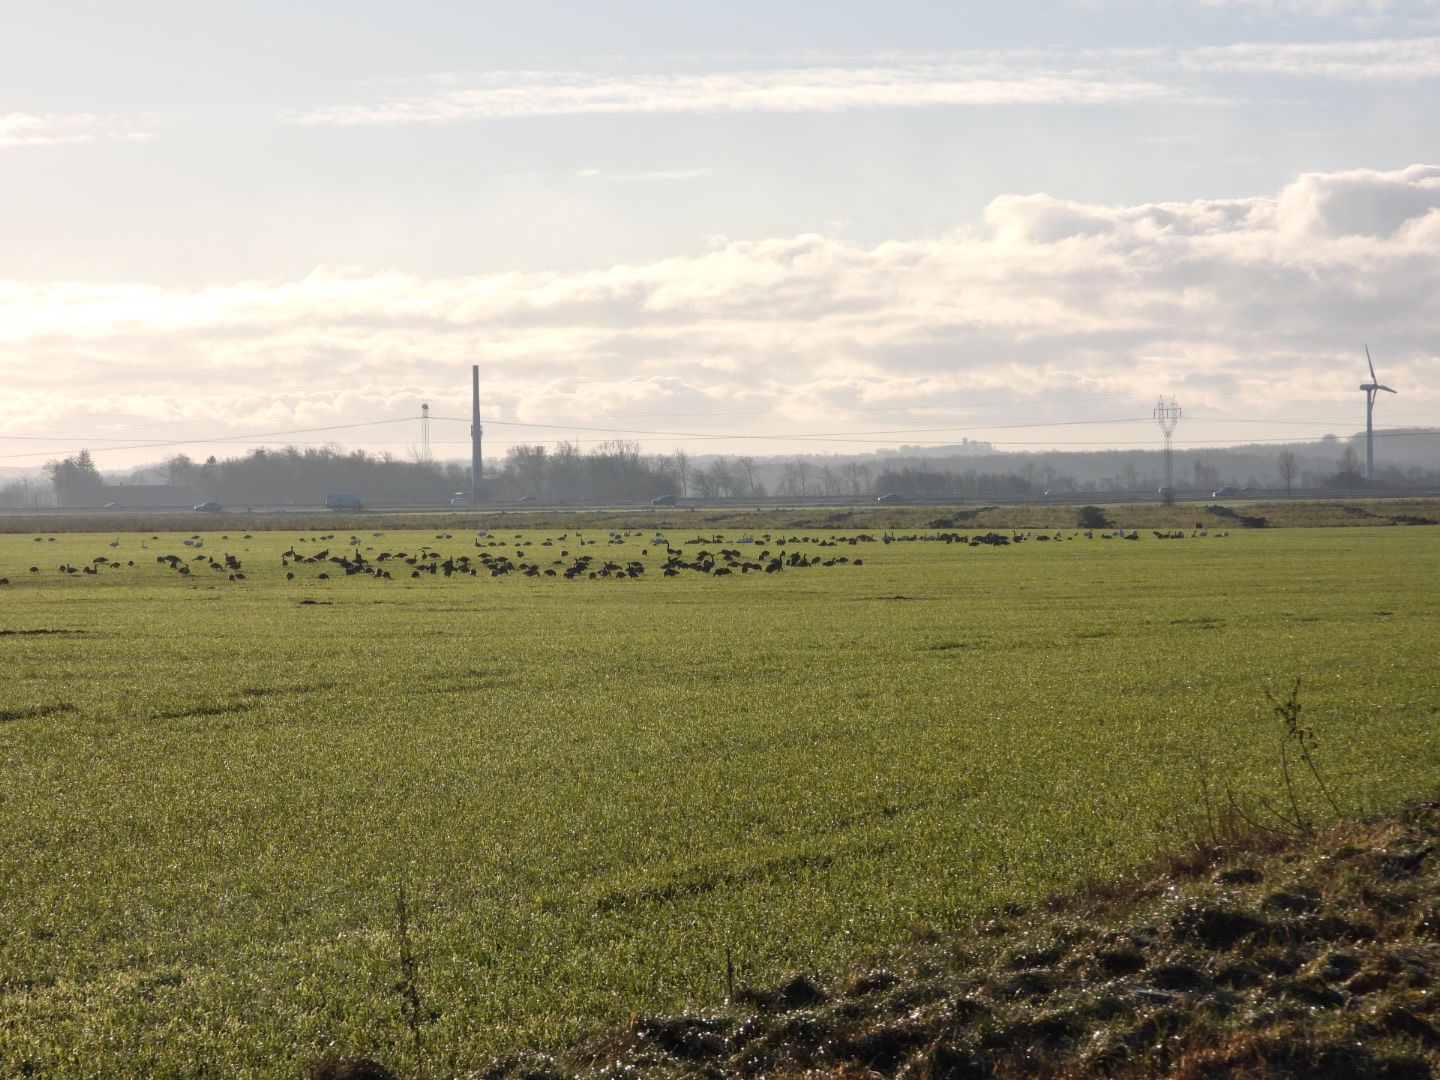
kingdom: Animalia
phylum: Chordata
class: Aves
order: Anseriformes
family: Anatidae
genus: Branta
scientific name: Branta canadensis
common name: Canadagås
